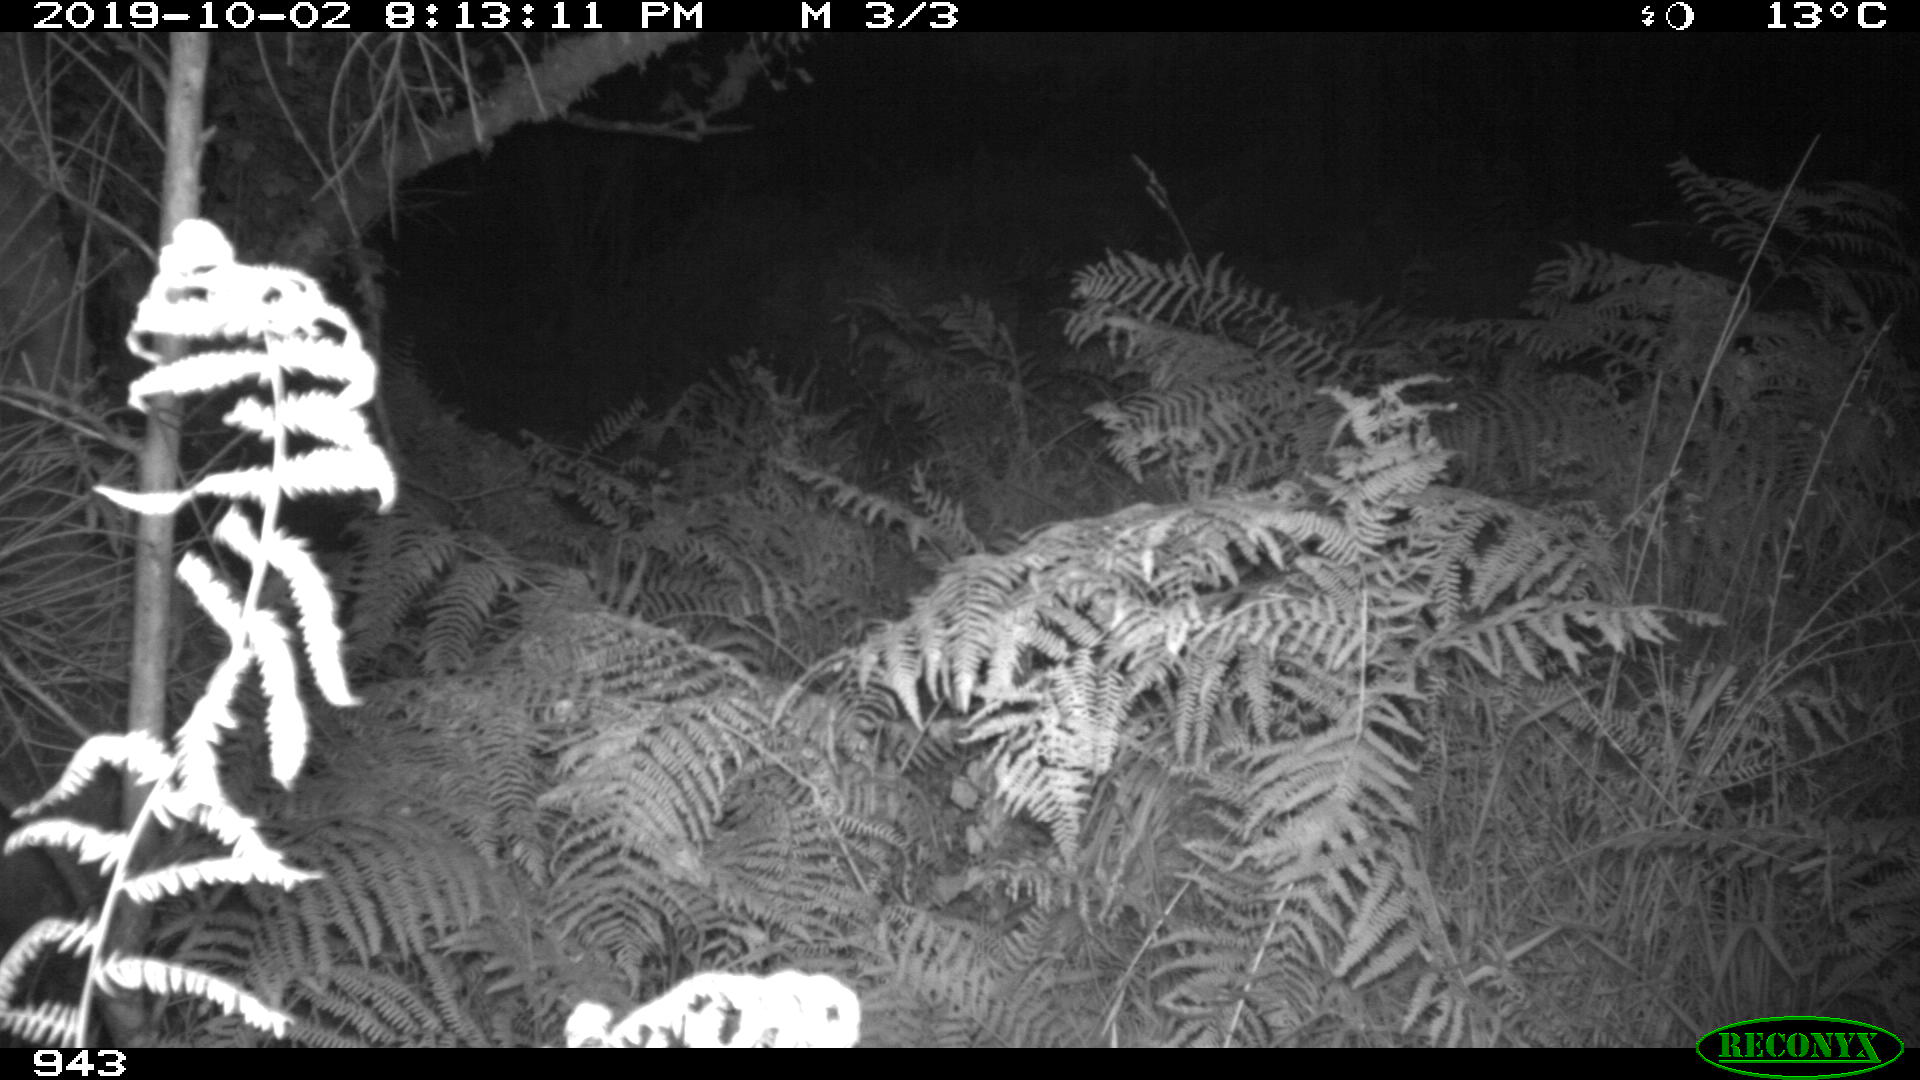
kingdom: Animalia
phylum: Chordata
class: Mammalia
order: Artiodactyla
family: Suidae
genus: Sus
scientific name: Sus scrofa
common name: Wild boar
